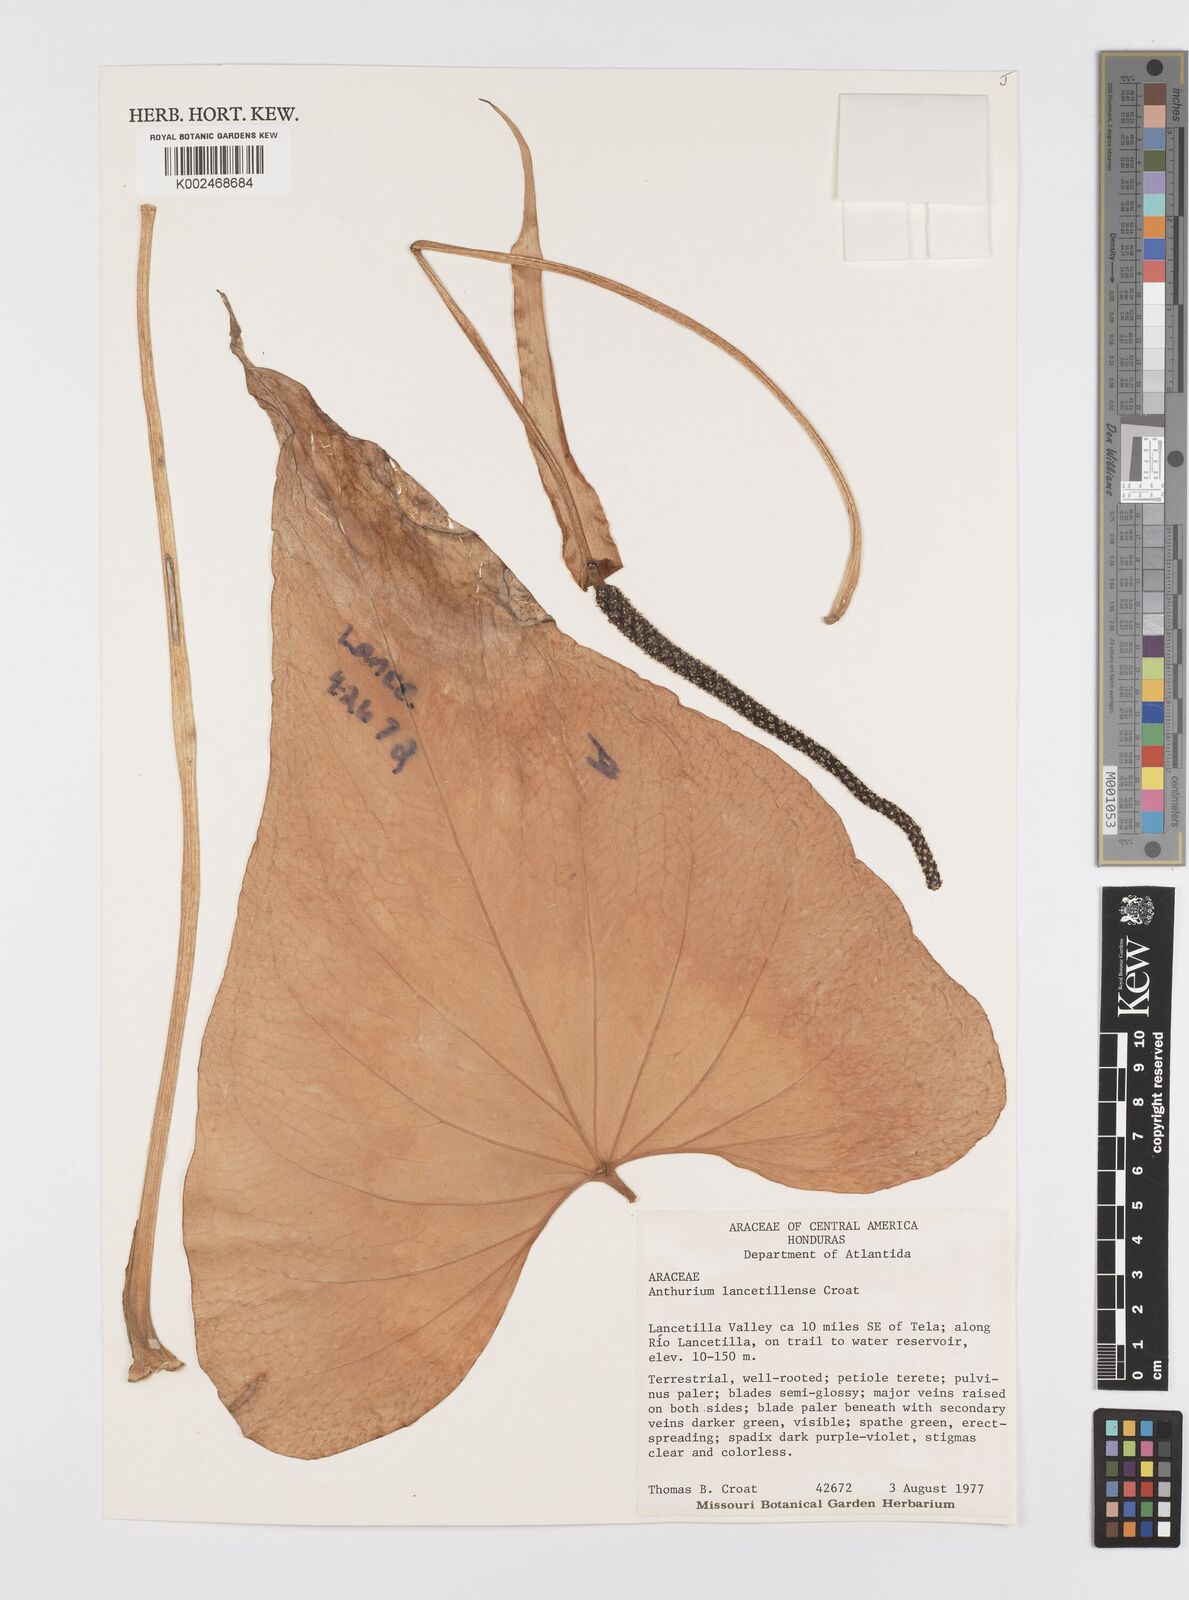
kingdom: Plantae
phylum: Tracheophyta
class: Liliopsida
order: Alismatales
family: Araceae
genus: Anthurium
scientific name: Anthurium lancetillense
